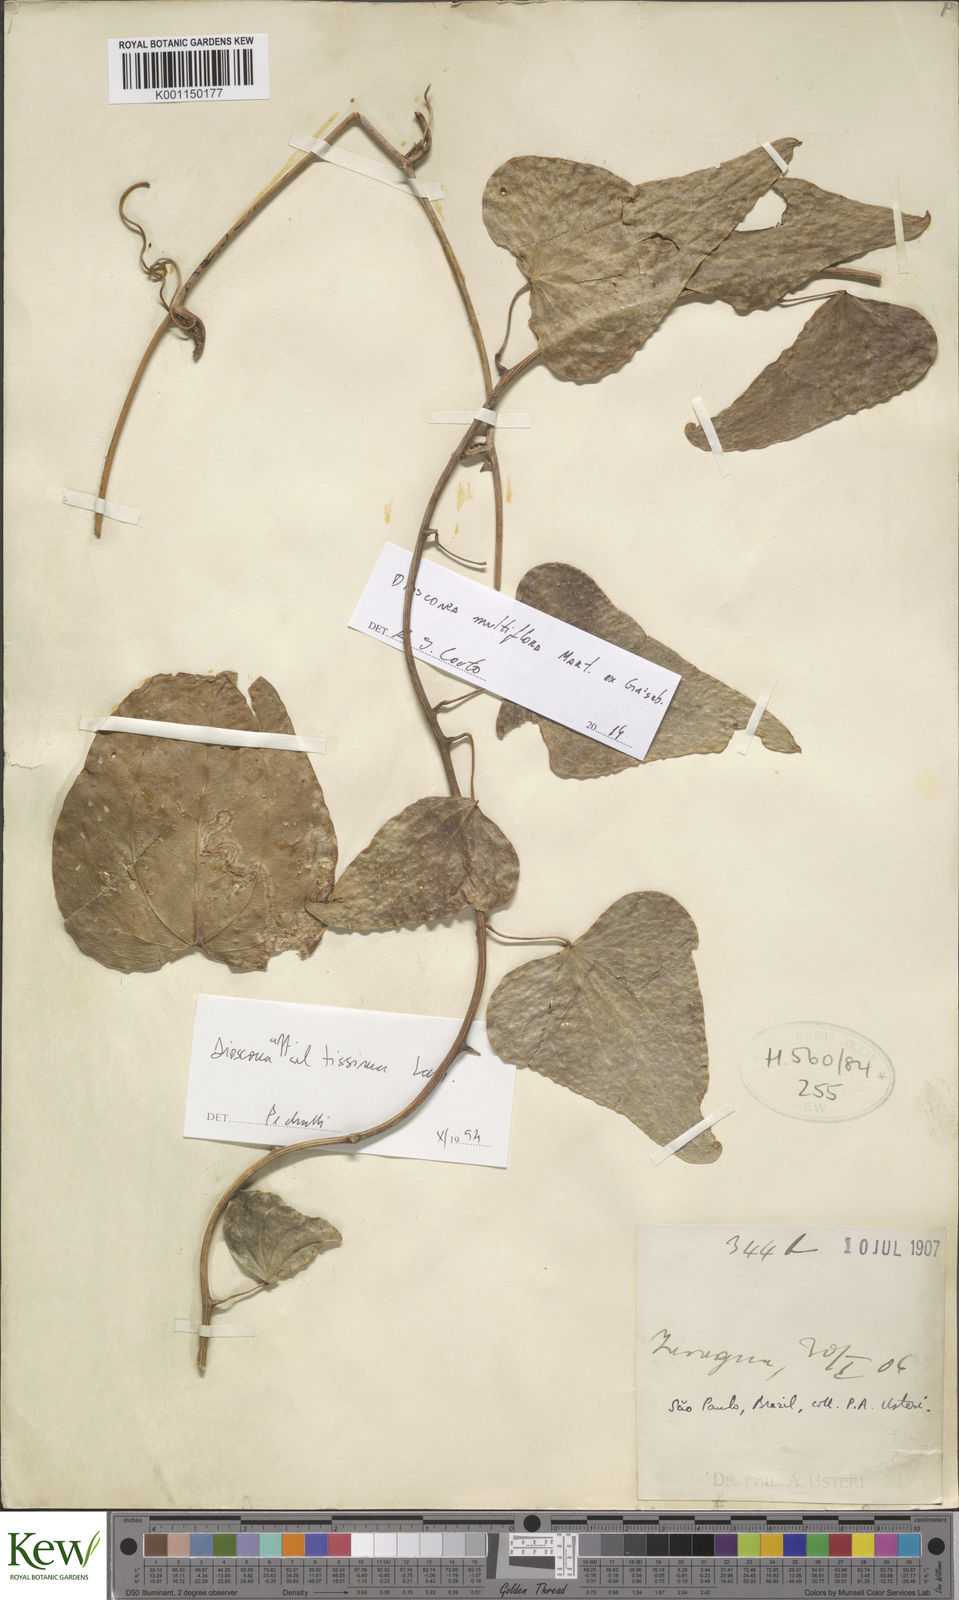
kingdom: Plantae
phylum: Tracheophyta
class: Liliopsida
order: Dioscoreales
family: Dioscoreaceae
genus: Dioscorea
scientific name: Dioscorea
